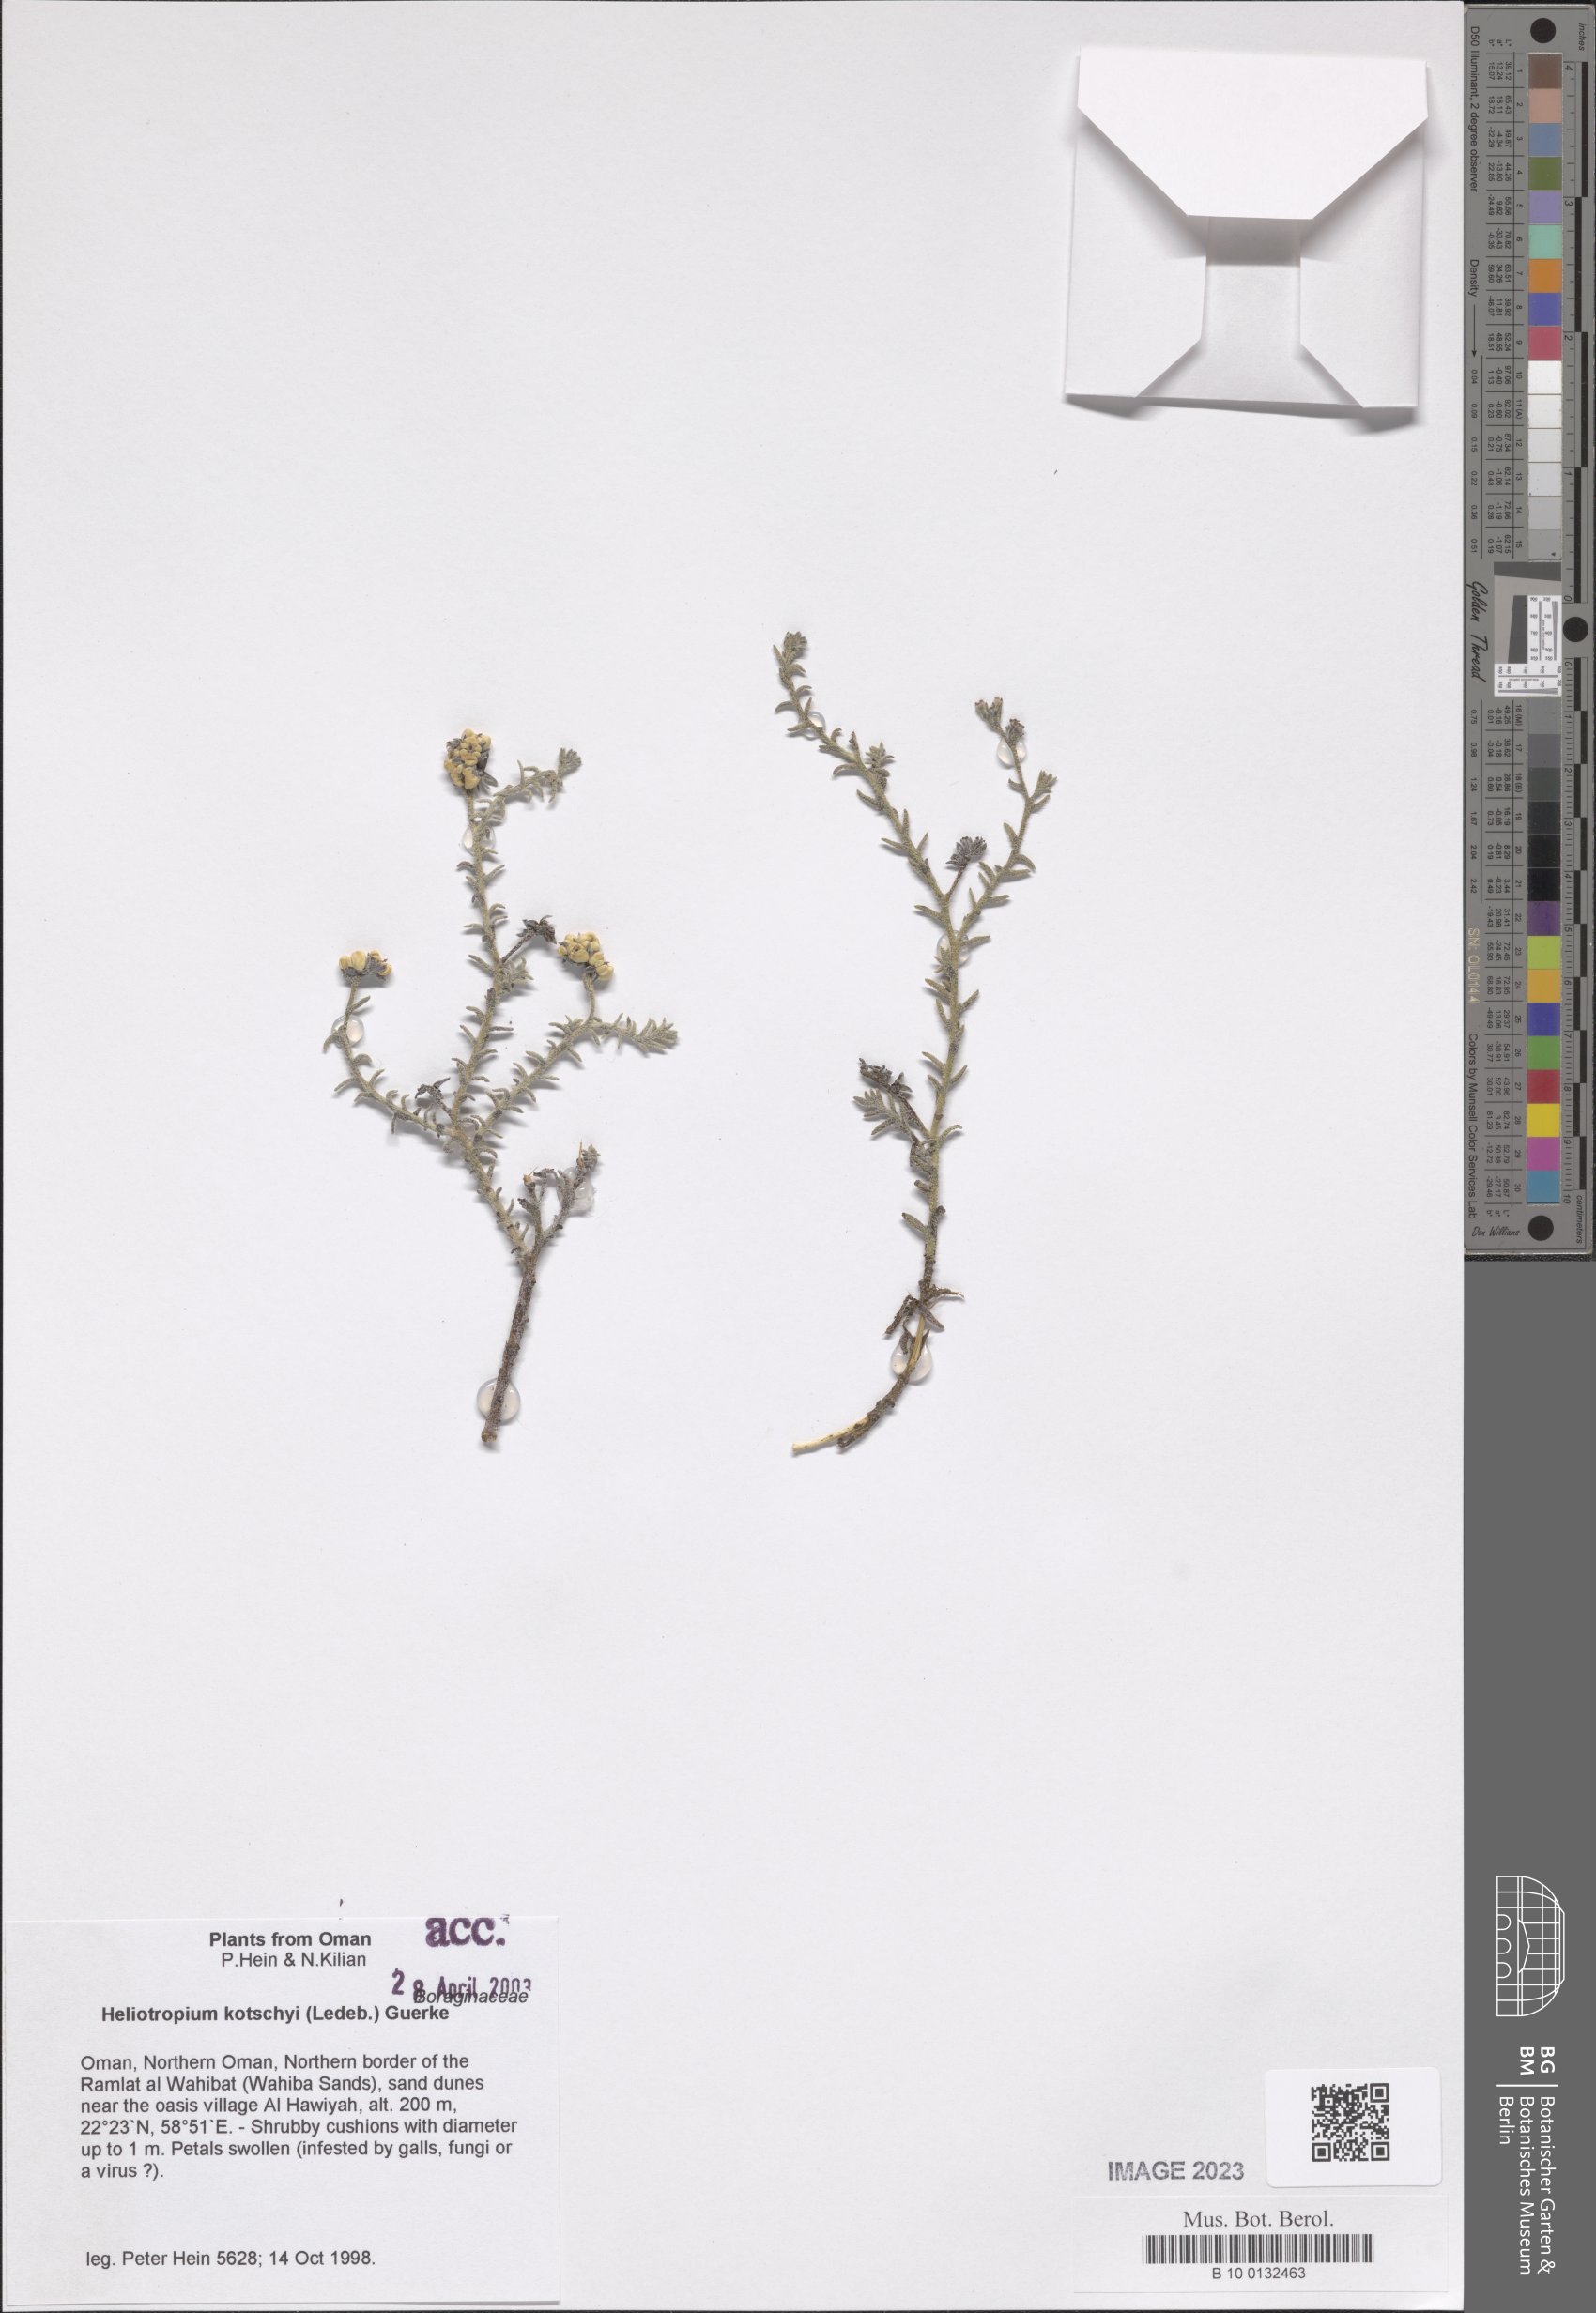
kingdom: Plantae
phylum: Tracheophyta
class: Magnoliopsida
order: Boraginales
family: Heliotropiaceae
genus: Heliotropium
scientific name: Heliotropium ramosissimum
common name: Wavy heliotrope
